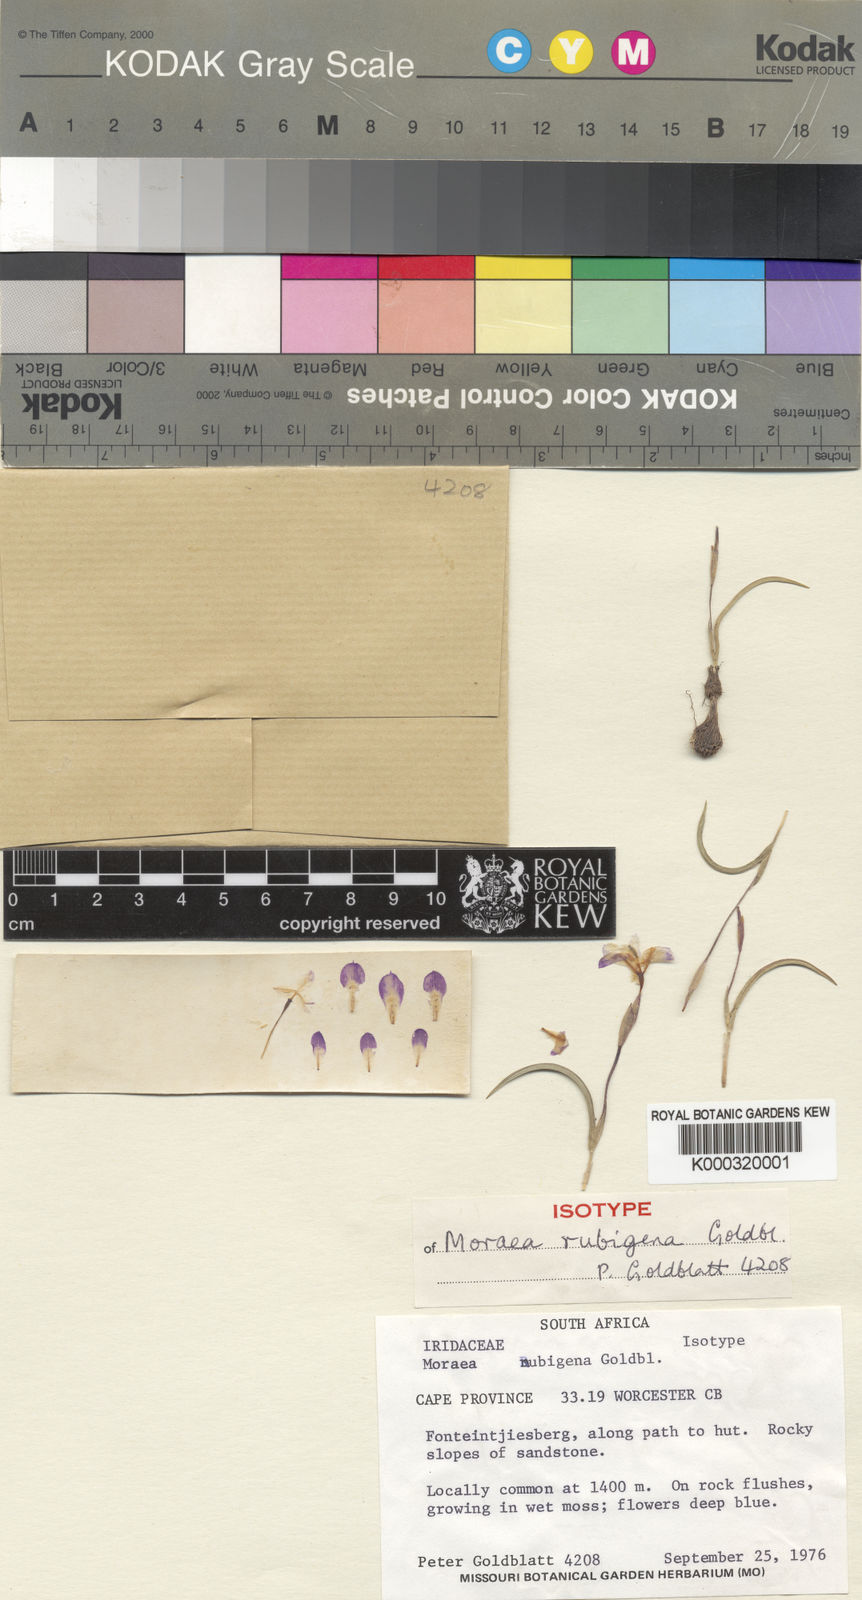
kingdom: Plantae
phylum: Tracheophyta
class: Liliopsida
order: Asparagales
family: Iridaceae
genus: Moraea
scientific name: Moraea nubigena
